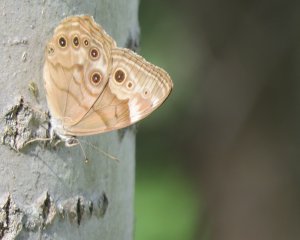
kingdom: Animalia
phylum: Arthropoda
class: Insecta
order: Lepidoptera
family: Nymphalidae
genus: Lethe
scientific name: Lethe anthedon
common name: Northern Pearly-Eye
